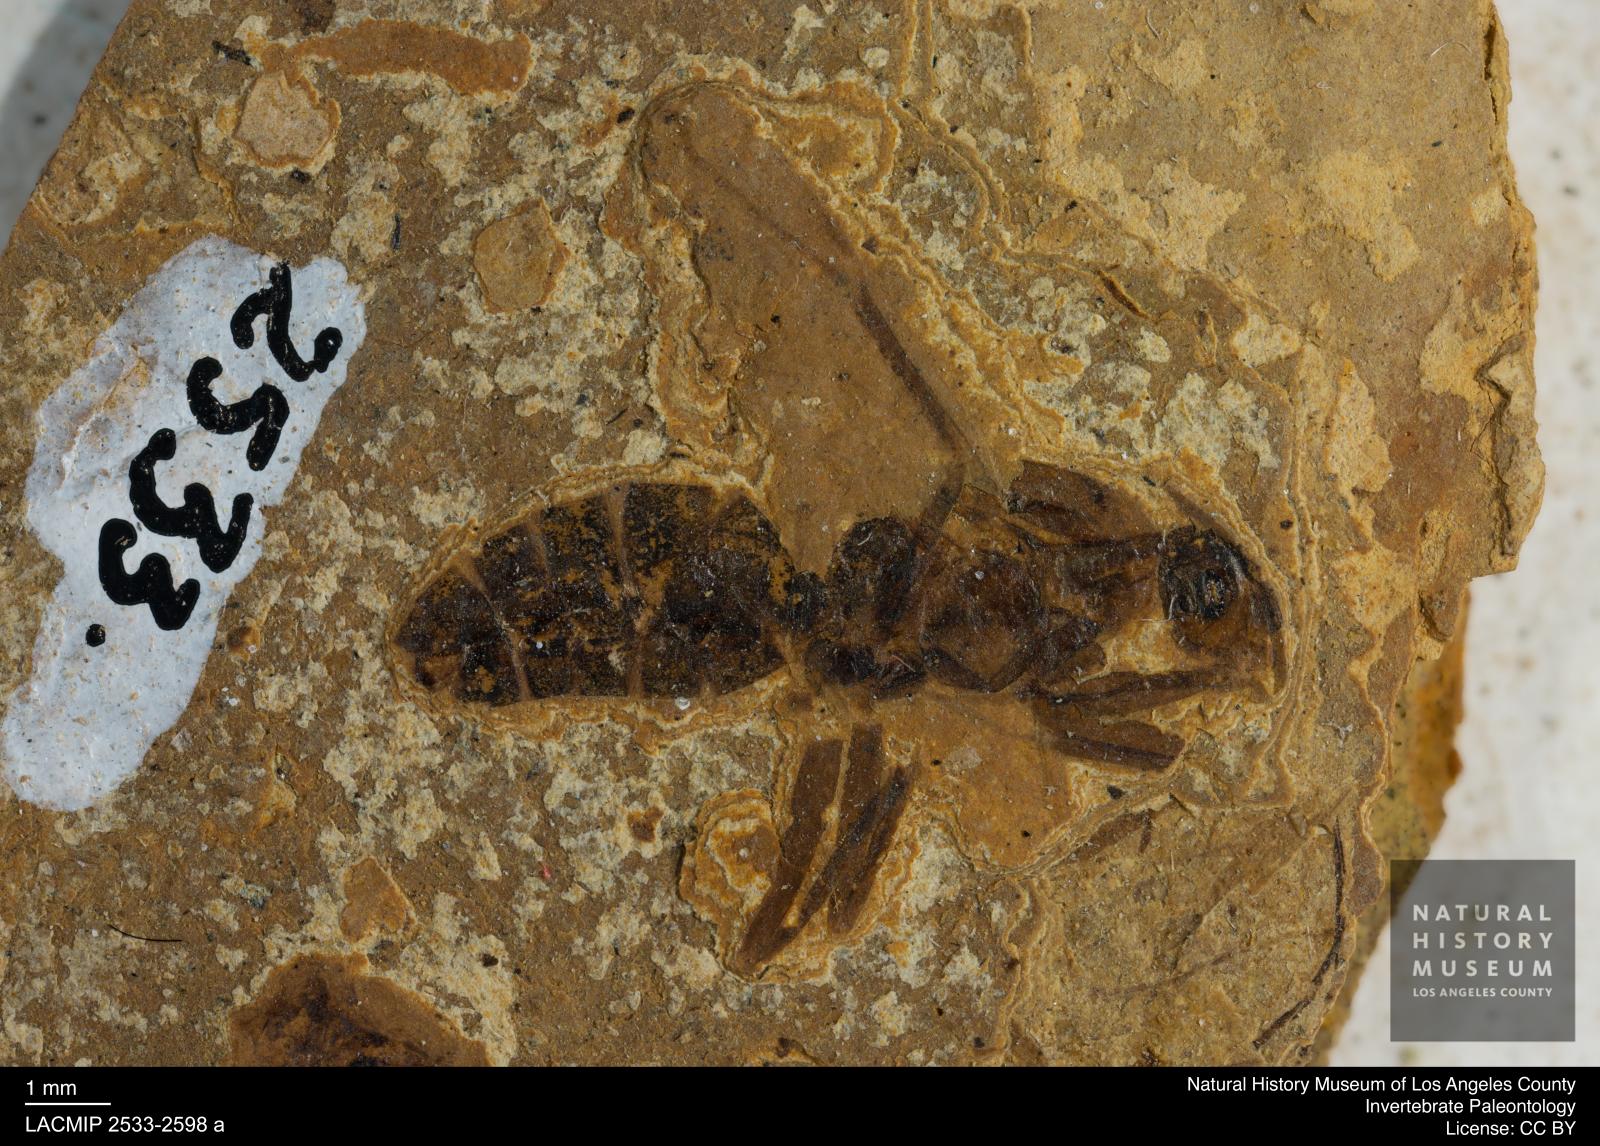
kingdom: Animalia
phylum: Arthropoda
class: Insecta
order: Hymenoptera
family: Formicidae
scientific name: Formicidae
